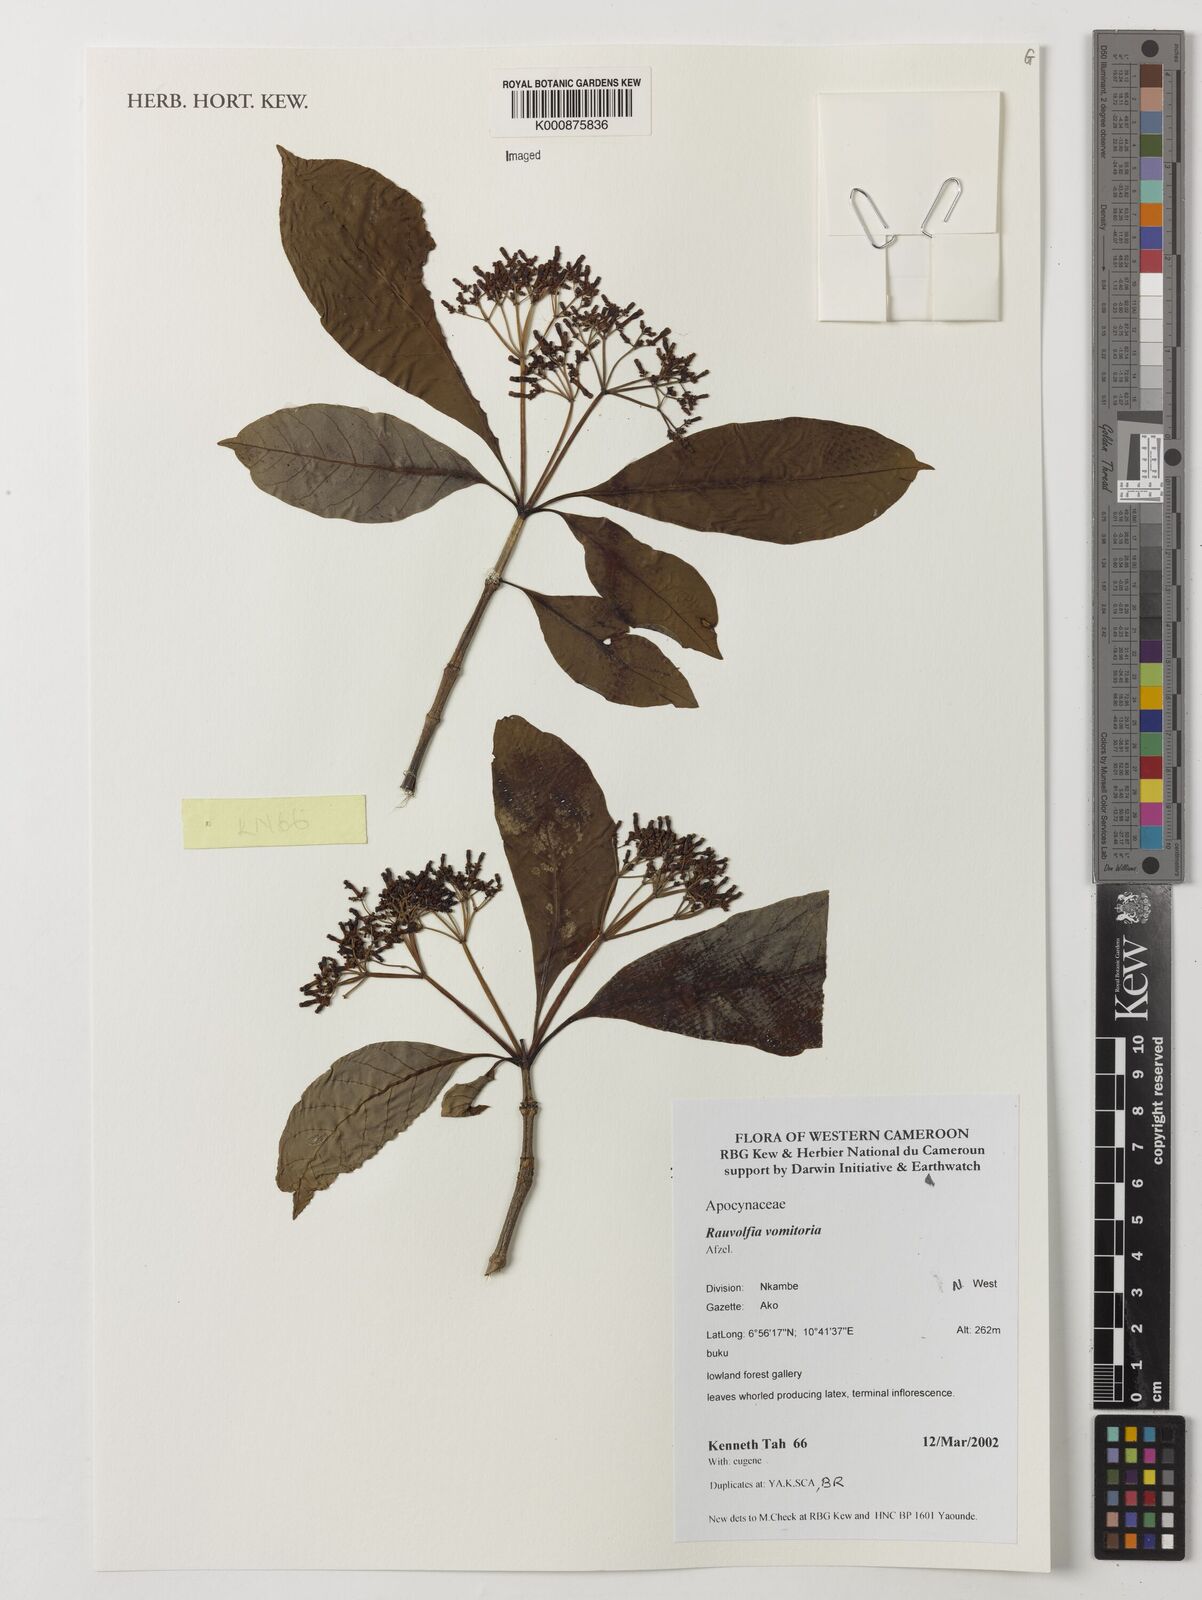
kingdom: Plantae
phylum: Tracheophyta
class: Magnoliopsida
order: Gentianales
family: Apocynaceae
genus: Rauvolfia
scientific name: Rauvolfia vomitoria
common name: Poison devil's-pepper
